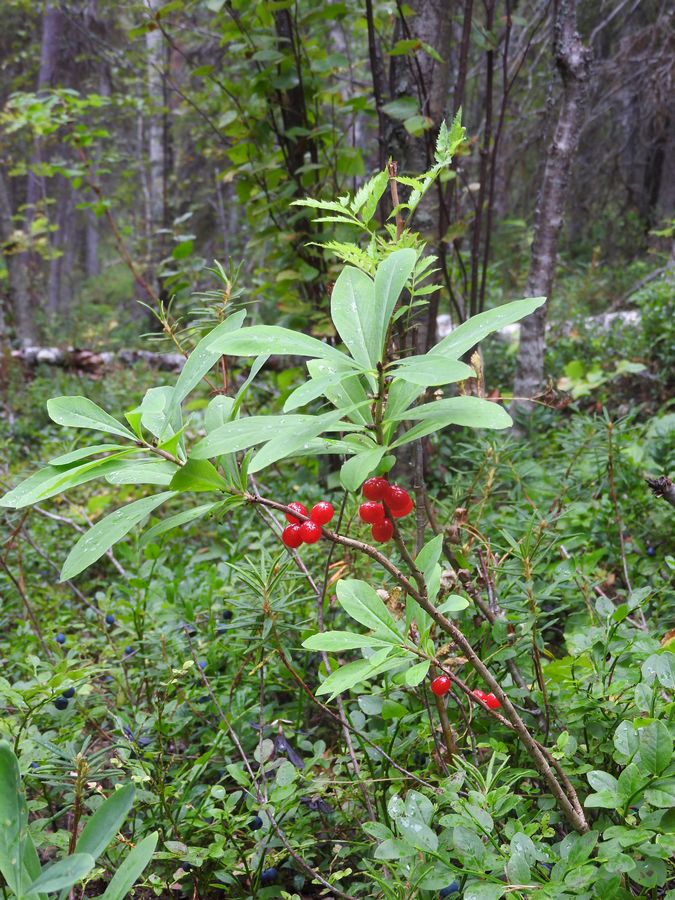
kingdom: Plantae
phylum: Tracheophyta
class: Magnoliopsida
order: Malvales
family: Thymelaeaceae
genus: Daphne
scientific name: Daphne mezereum
